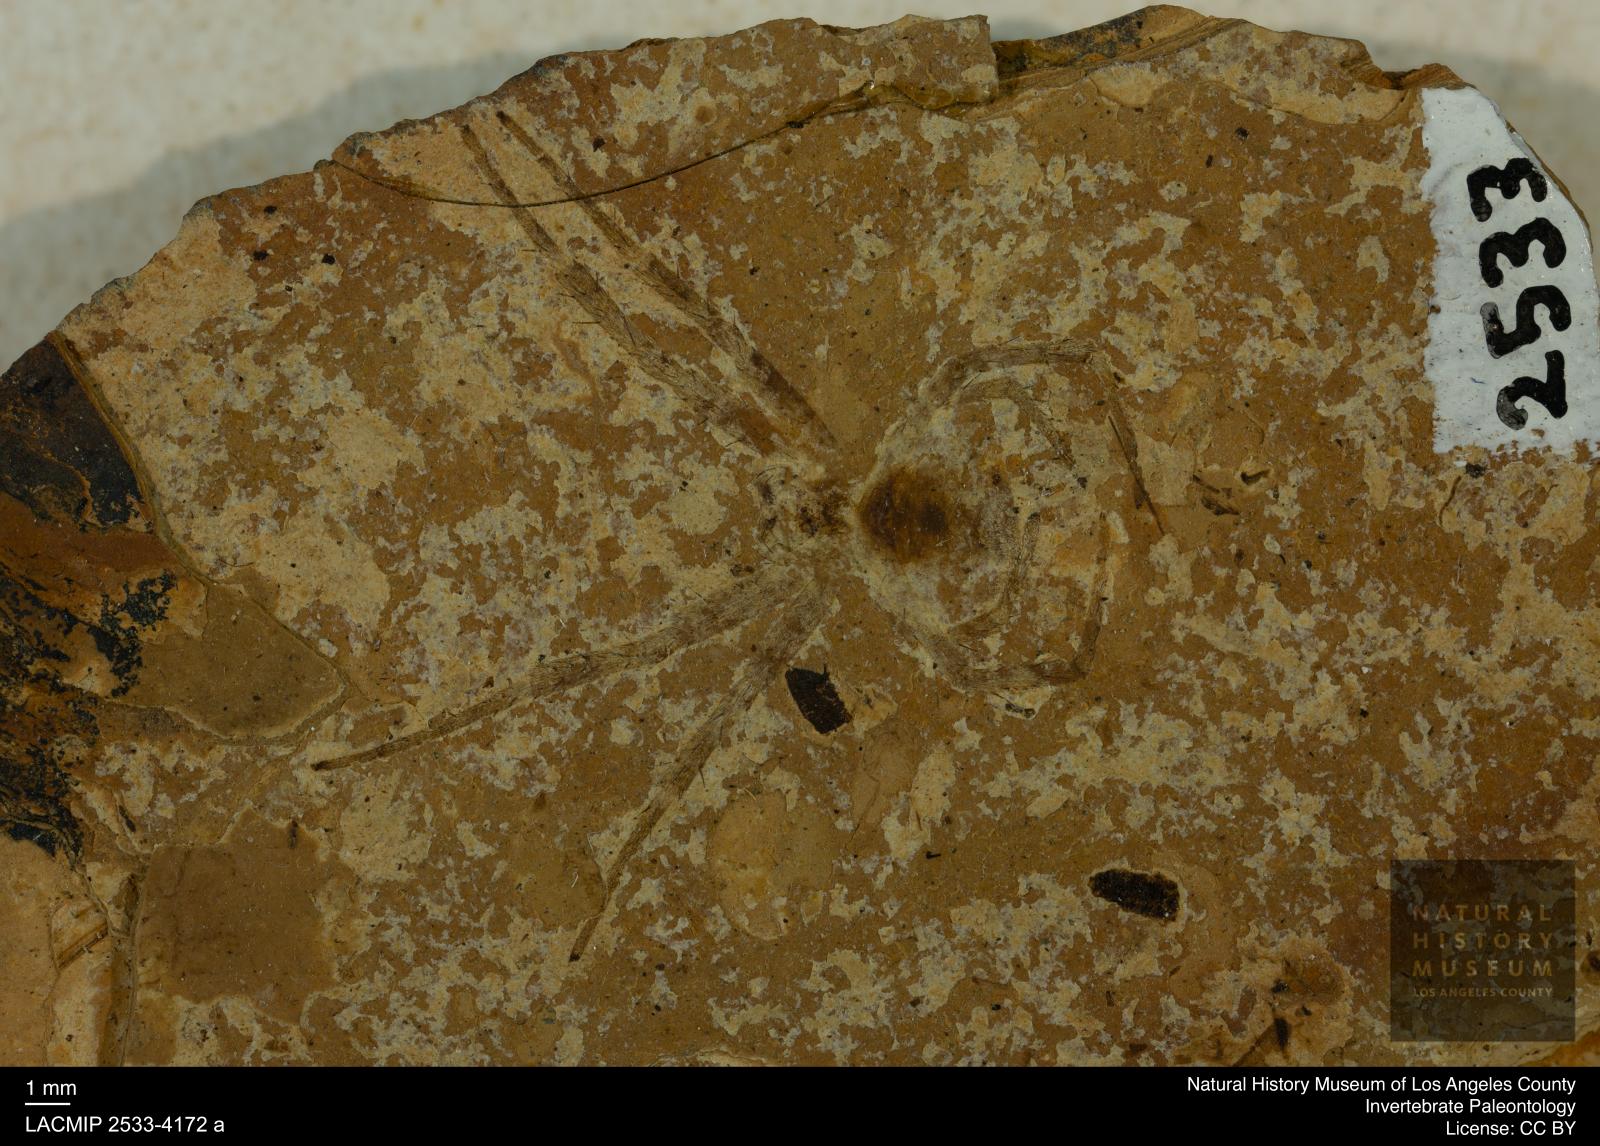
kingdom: Animalia
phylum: Arthropoda
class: Arachnida
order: Araneae
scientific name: Araneae
